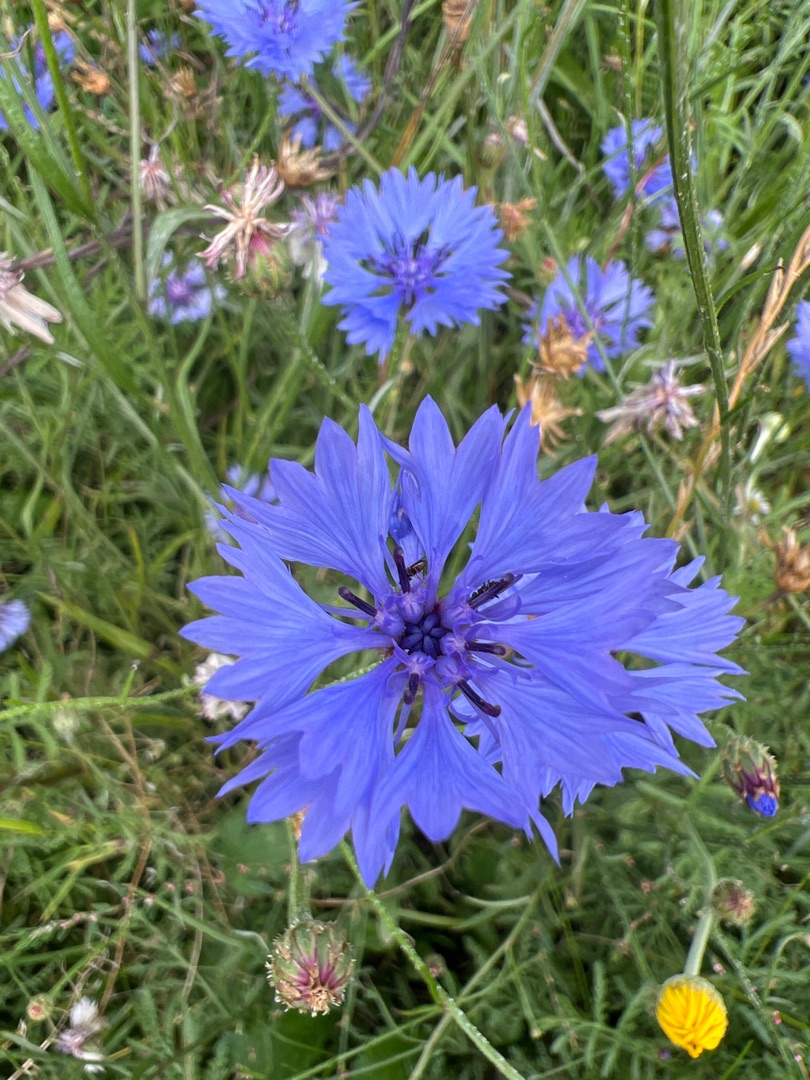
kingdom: Plantae
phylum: Tracheophyta
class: Magnoliopsida
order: Asterales
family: Asteraceae
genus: Centaurea
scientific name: Centaurea cyanus
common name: Kornblomst
